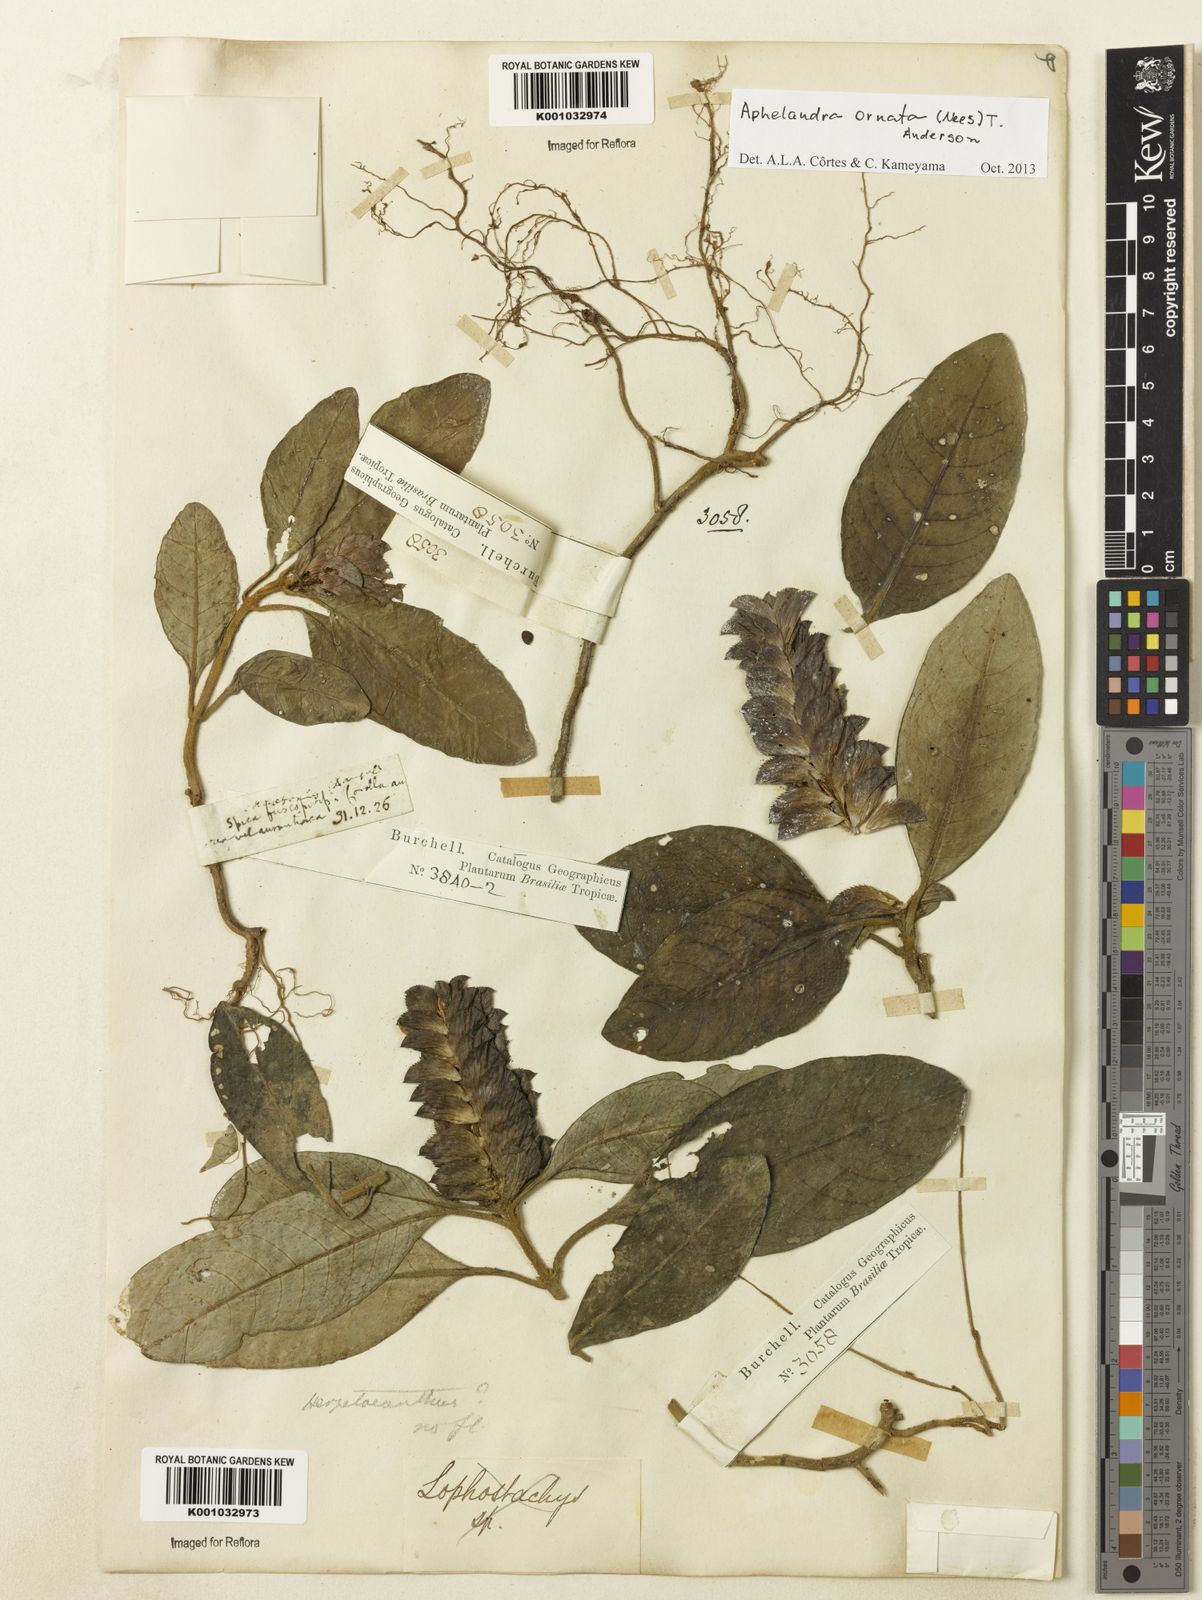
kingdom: Plantae
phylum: Tracheophyta
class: Magnoliopsida
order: Lamiales
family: Acanthaceae
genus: Aphelandra
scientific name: Aphelandra ornata
